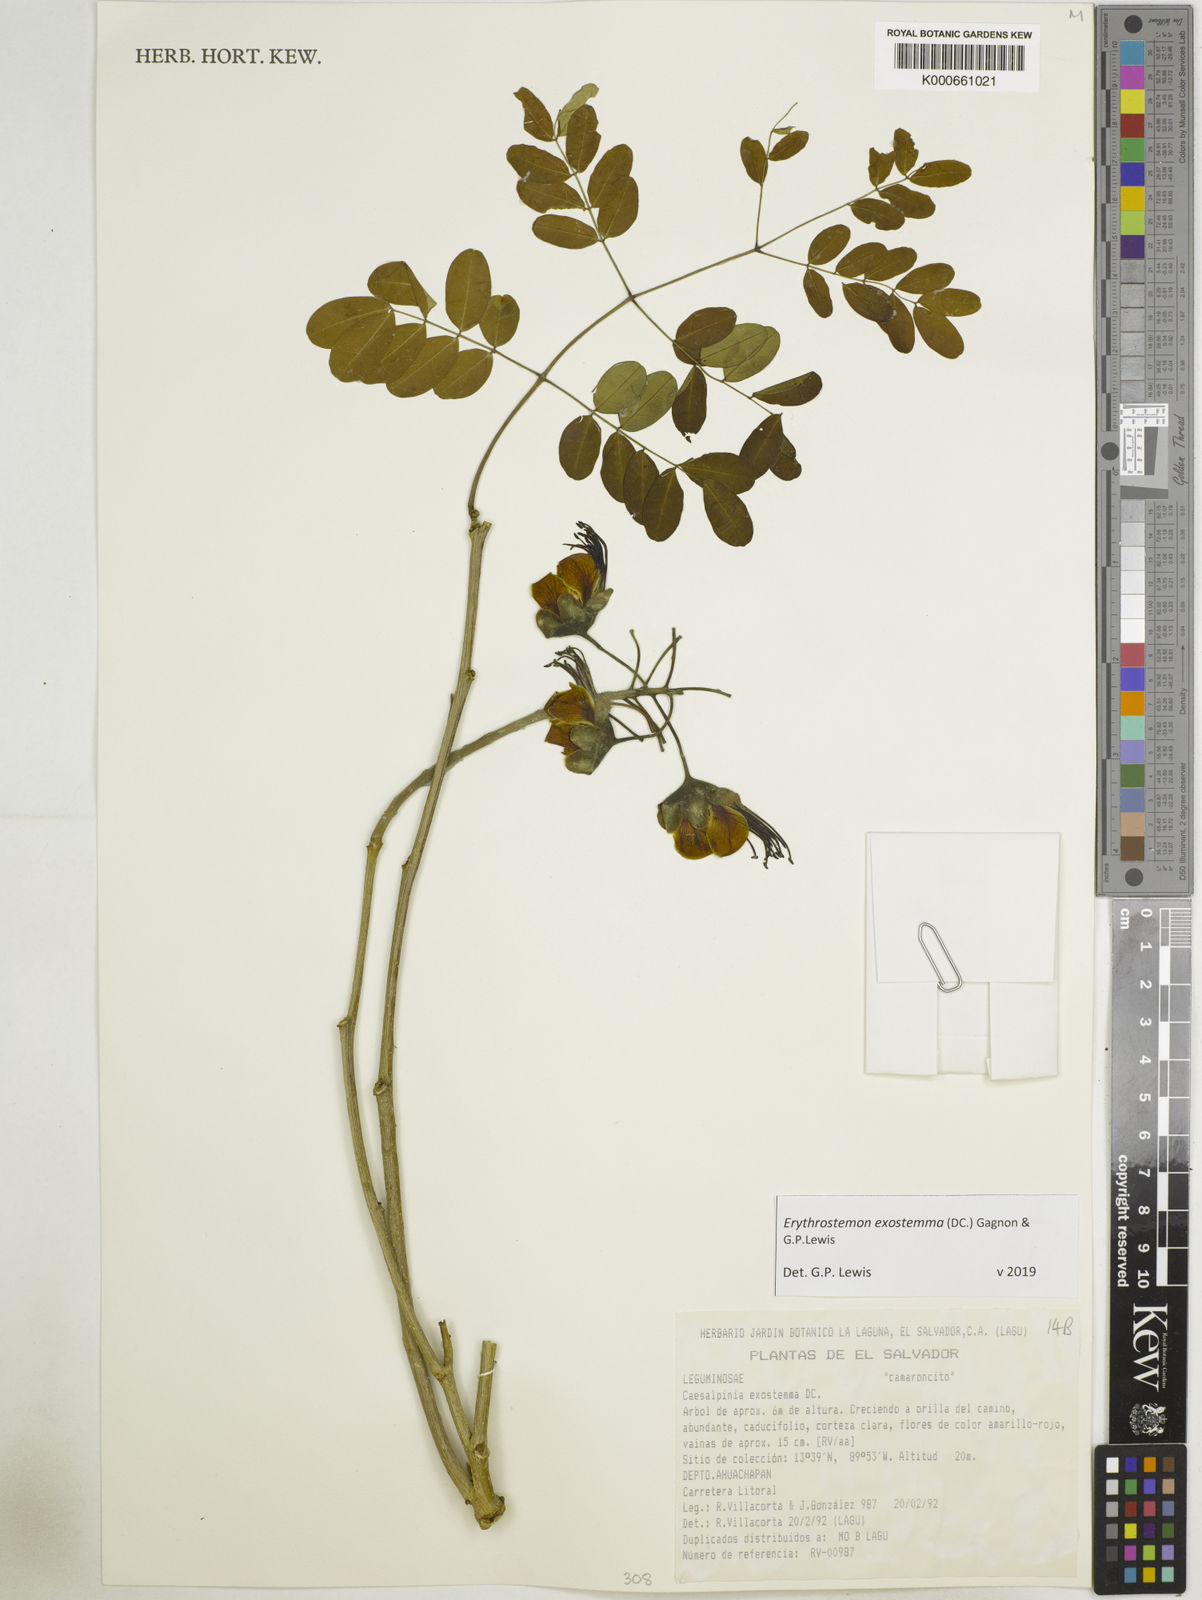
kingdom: Plantae
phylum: Tracheophyta
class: Magnoliopsida
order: Fabales
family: Fabaceae
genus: Erythrostemon
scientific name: Erythrostemon exostemma
